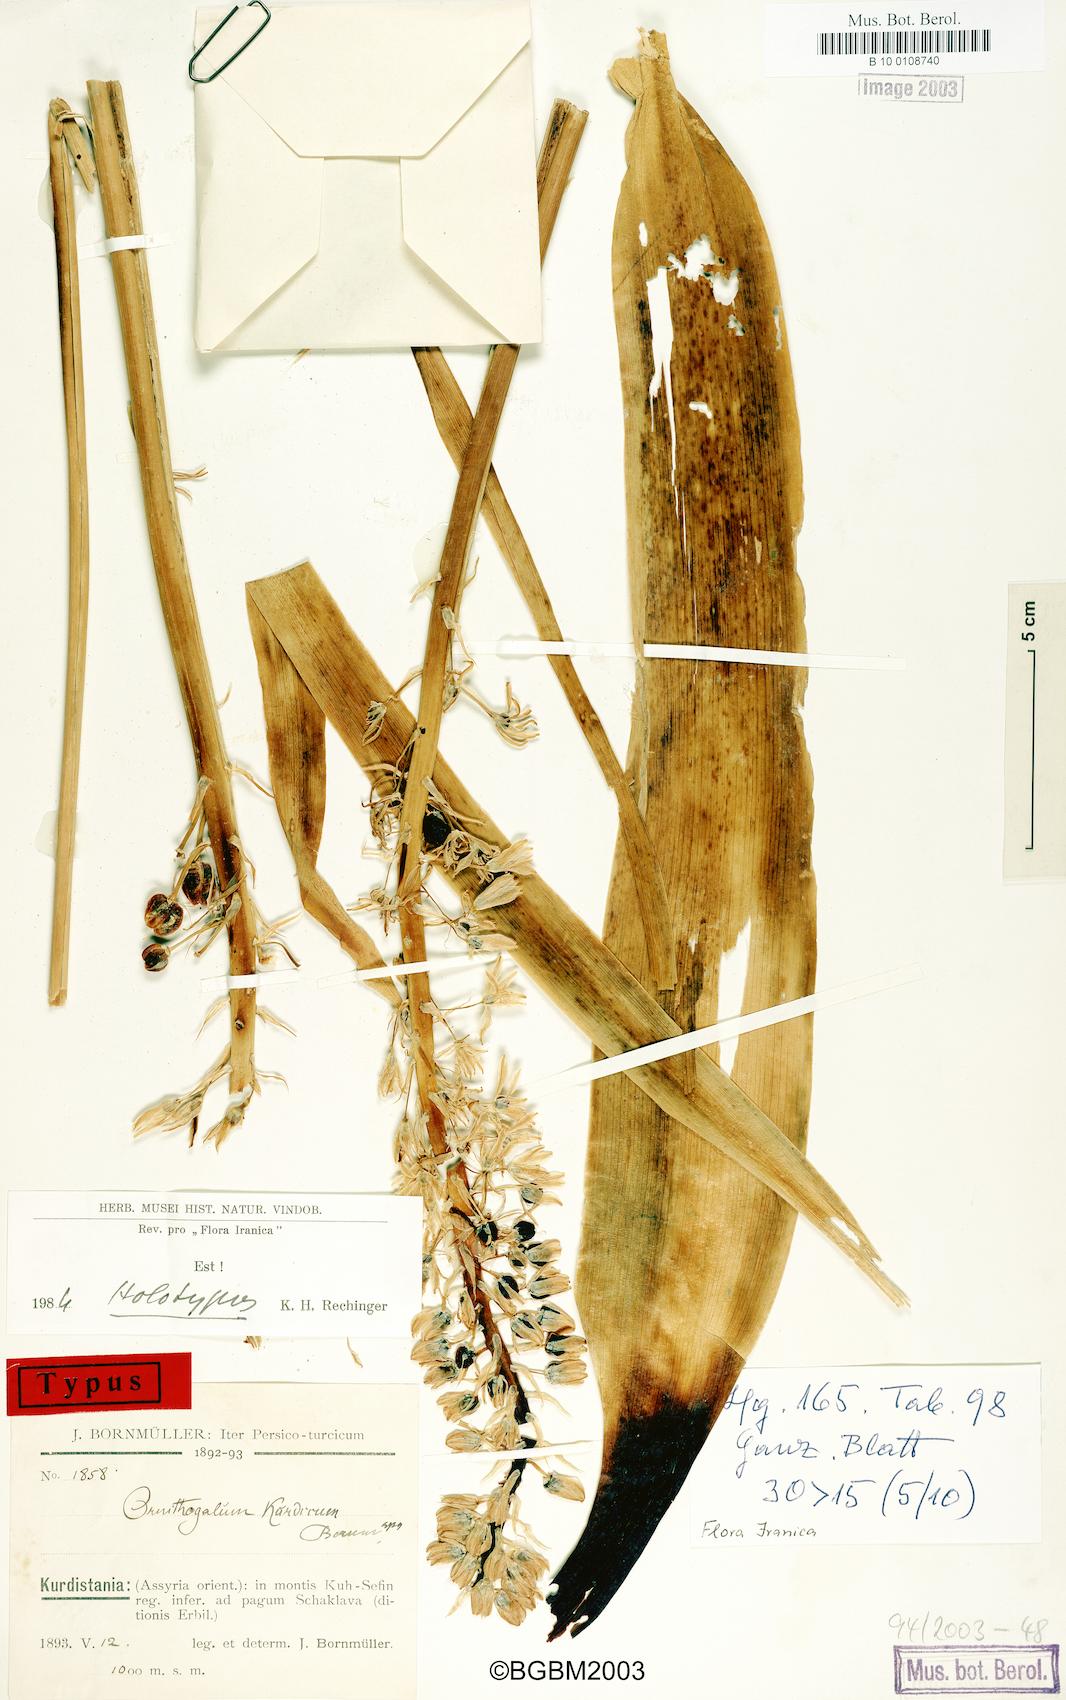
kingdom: Plantae
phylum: Tracheophyta
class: Liliopsida
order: Asparagales
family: Asparagaceae
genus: Ornithogalum
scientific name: Ornithogalum kurdicum
